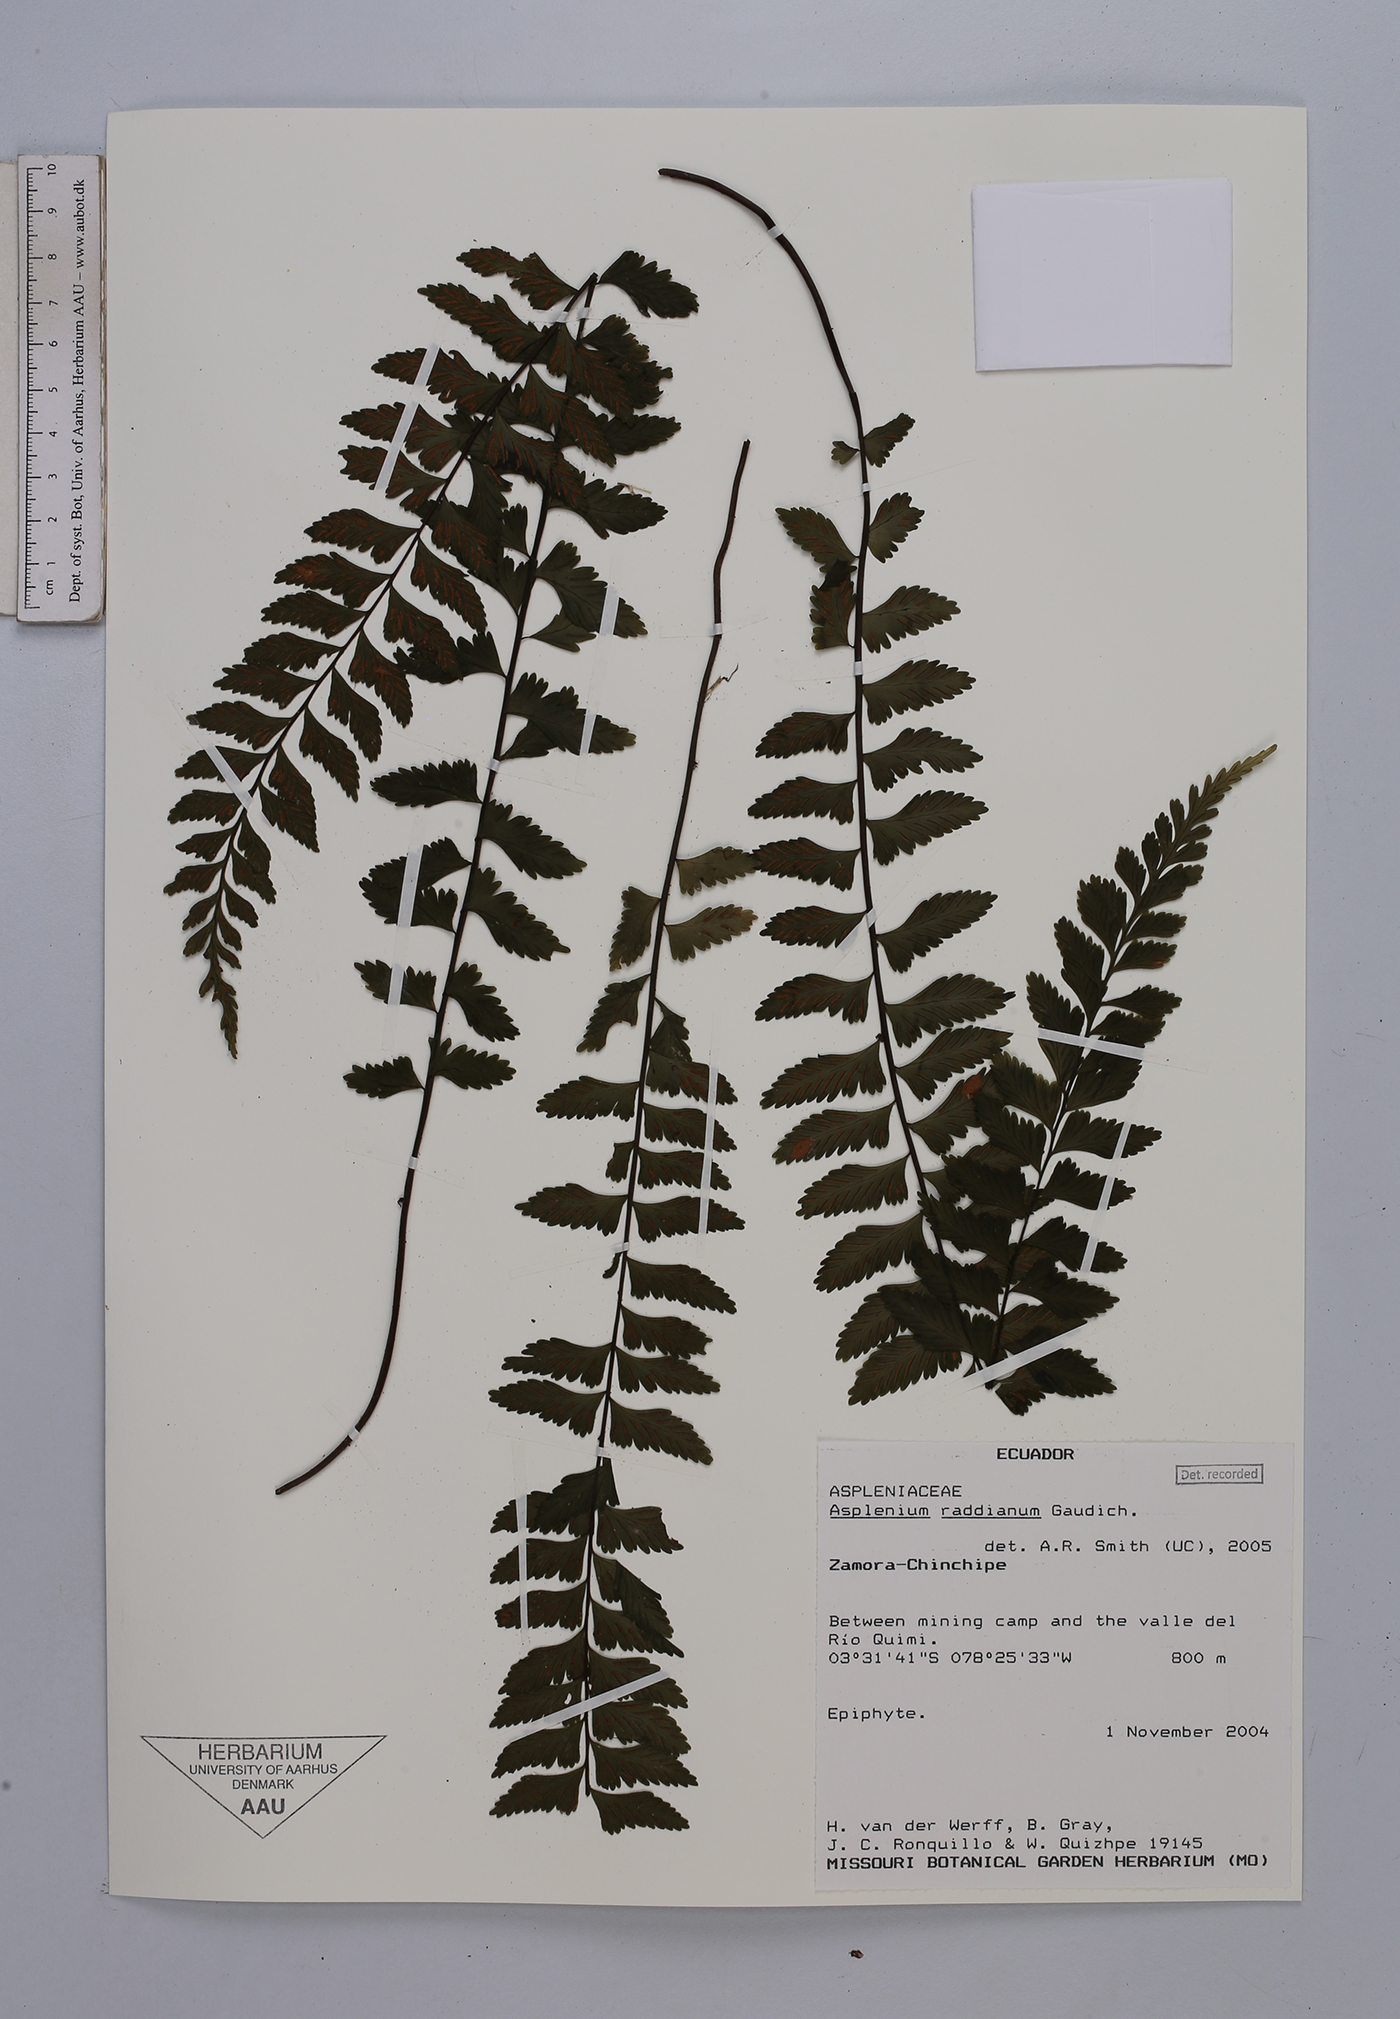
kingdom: Plantae
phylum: Tracheophyta
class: Polypodiopsida
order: Polypodiales
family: Aspleniaceae
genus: Asplenium
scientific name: Asplenium raddianum
